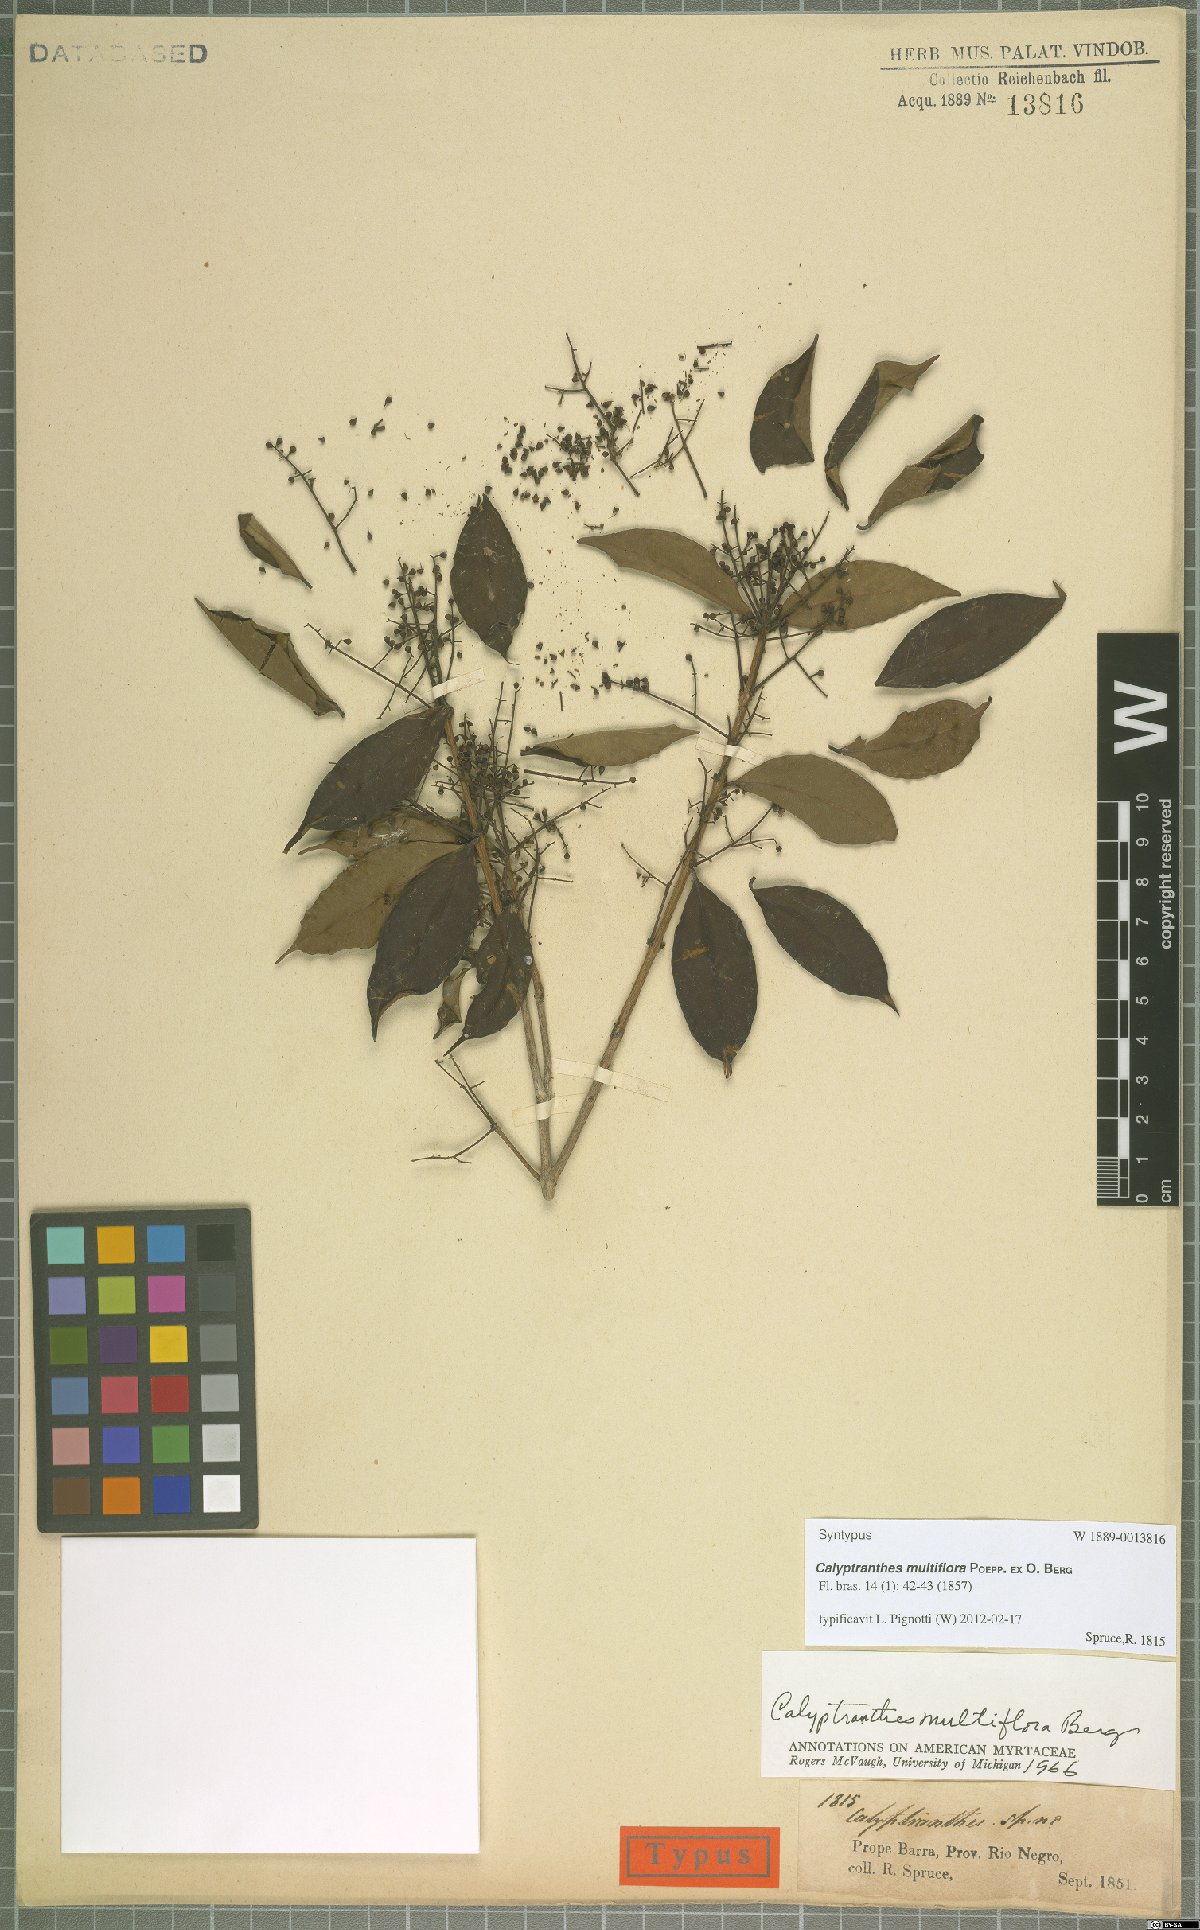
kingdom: Plantae
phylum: Tracheophyta
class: Magnoliopsida
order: Myrtales
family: Myrtaceae
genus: Myrcia
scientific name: Myrcia aulomyrcioides
